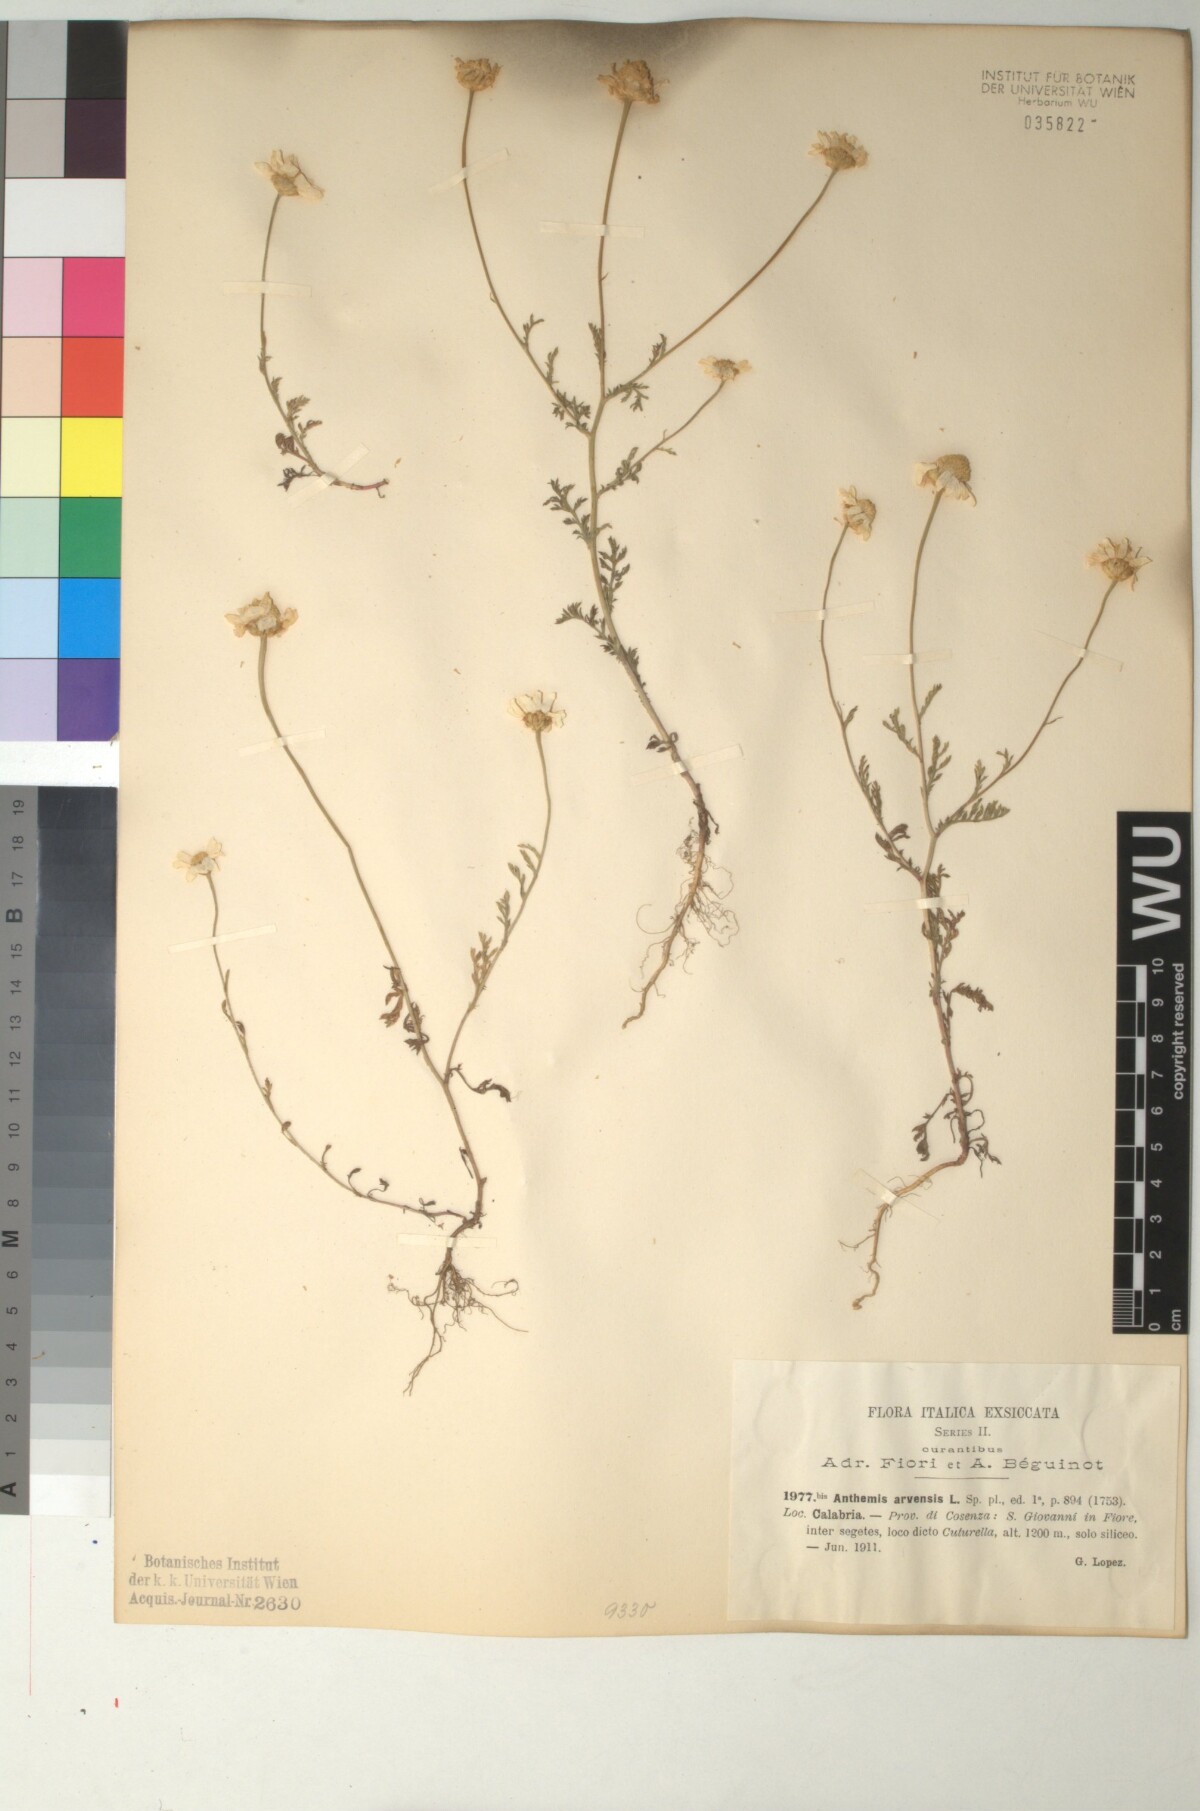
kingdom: Plantae
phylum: Tracheophyta
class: Magnoliopsida
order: Asterales
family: Asteraceae
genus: Anthemis
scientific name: Anthemis arvensis
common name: Corn chamomile
